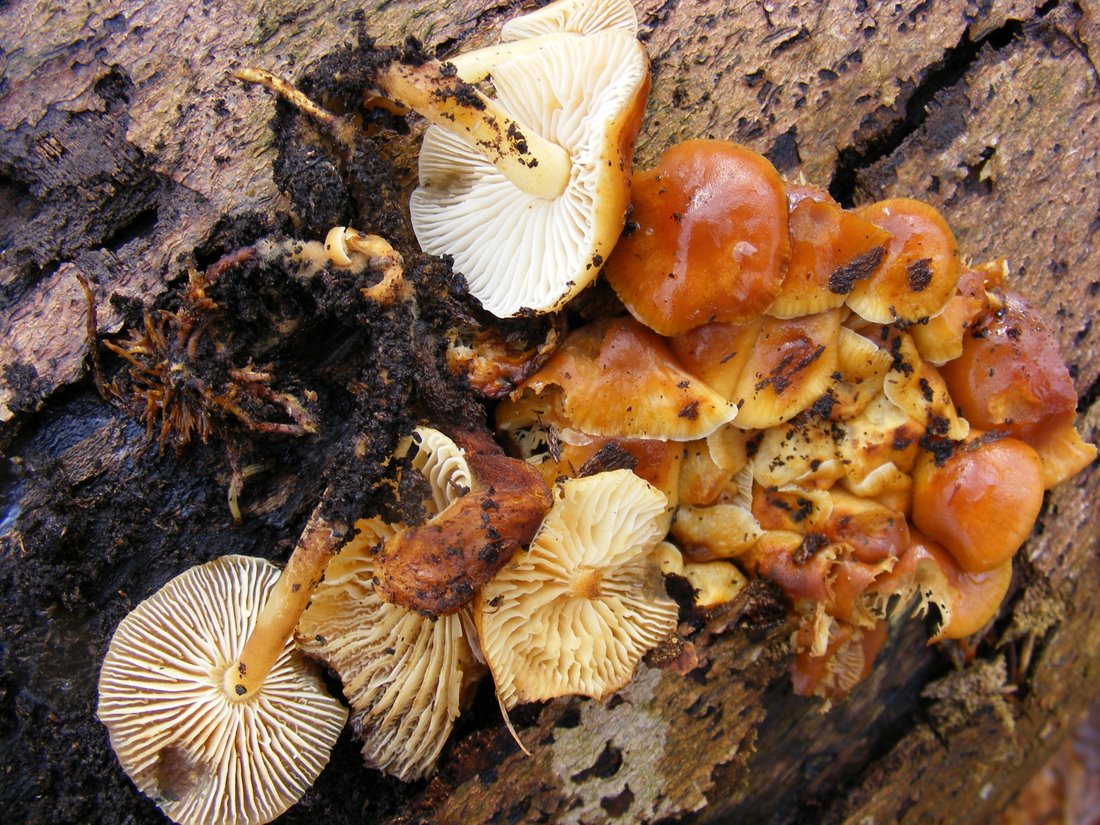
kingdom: Fungi
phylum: Basidiomycota
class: Agaricomycetes
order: Agaricales
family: Physalacriaceae
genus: Flammulina
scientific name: Flammulina velutipes
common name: gul fløjlsfod
